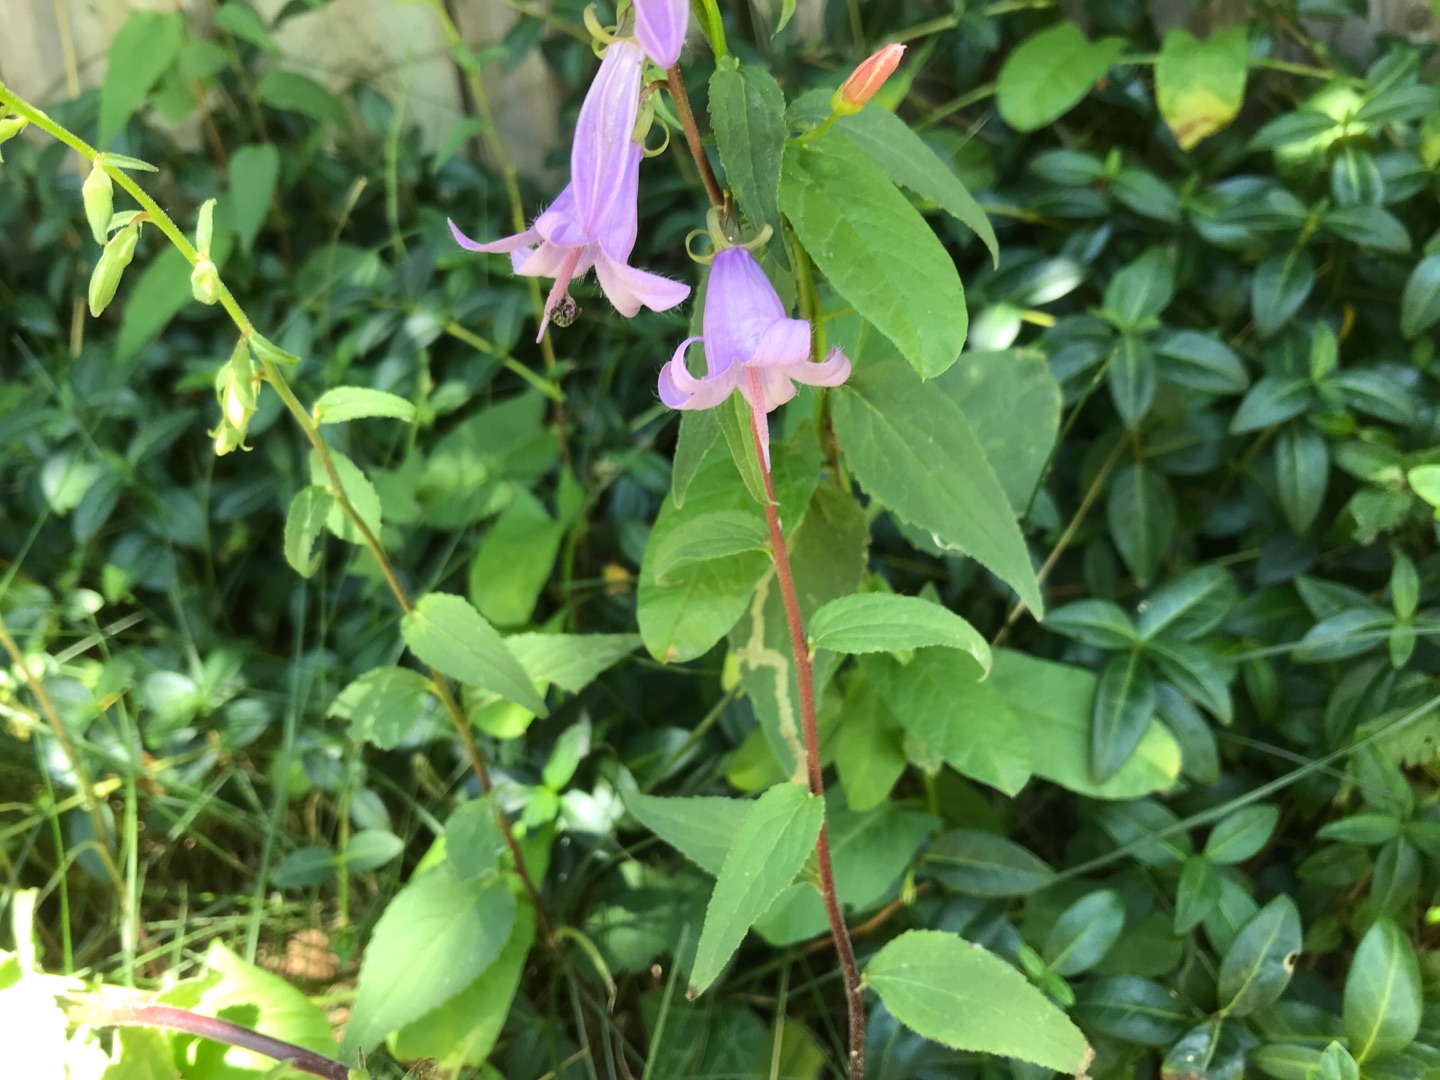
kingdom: Plantae
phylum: Tracheophyta
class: Magnoliopsida
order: Asterales
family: Campanulaceae
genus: Campanula
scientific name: Campanula rapunculoides
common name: Ensidig klokke
